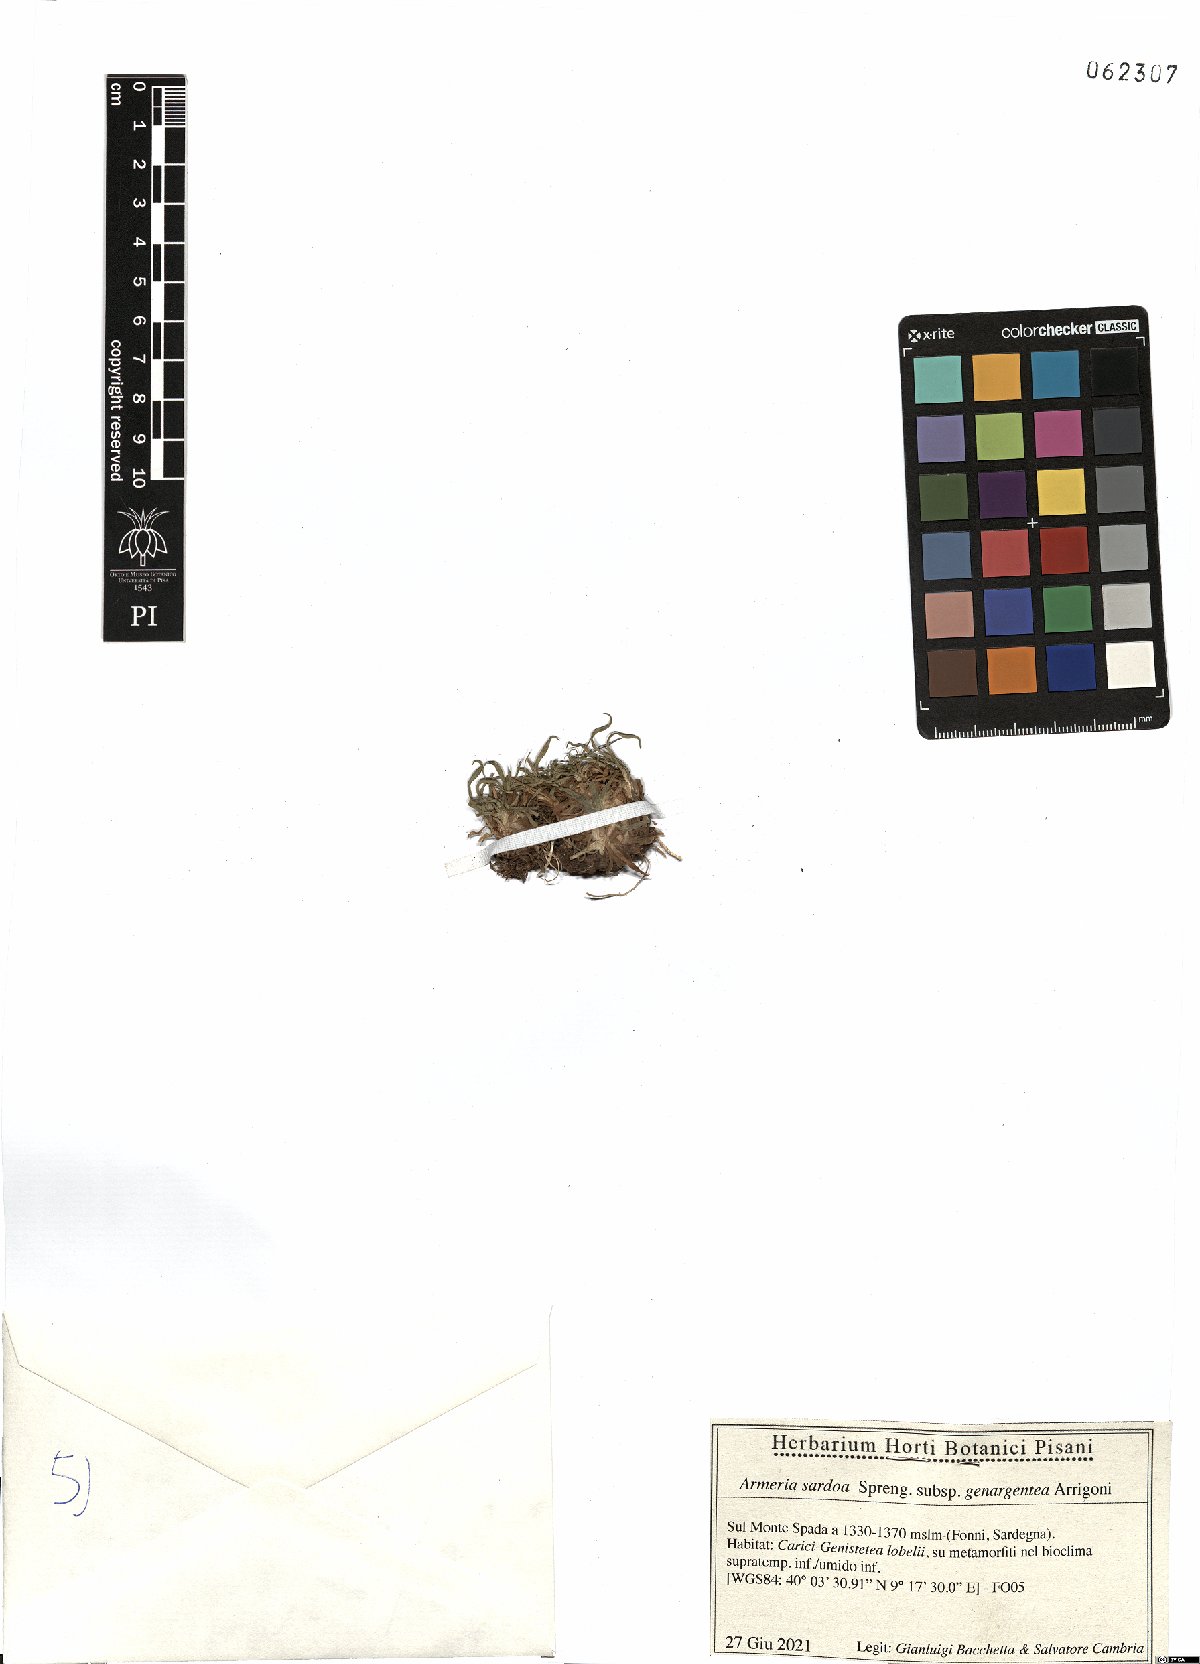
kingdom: Plantae
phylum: Tracheophyta
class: Magnoliopsida
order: Caryophyllales
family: Plumbaginaceae
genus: Armeria
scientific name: Armeria sardoa
